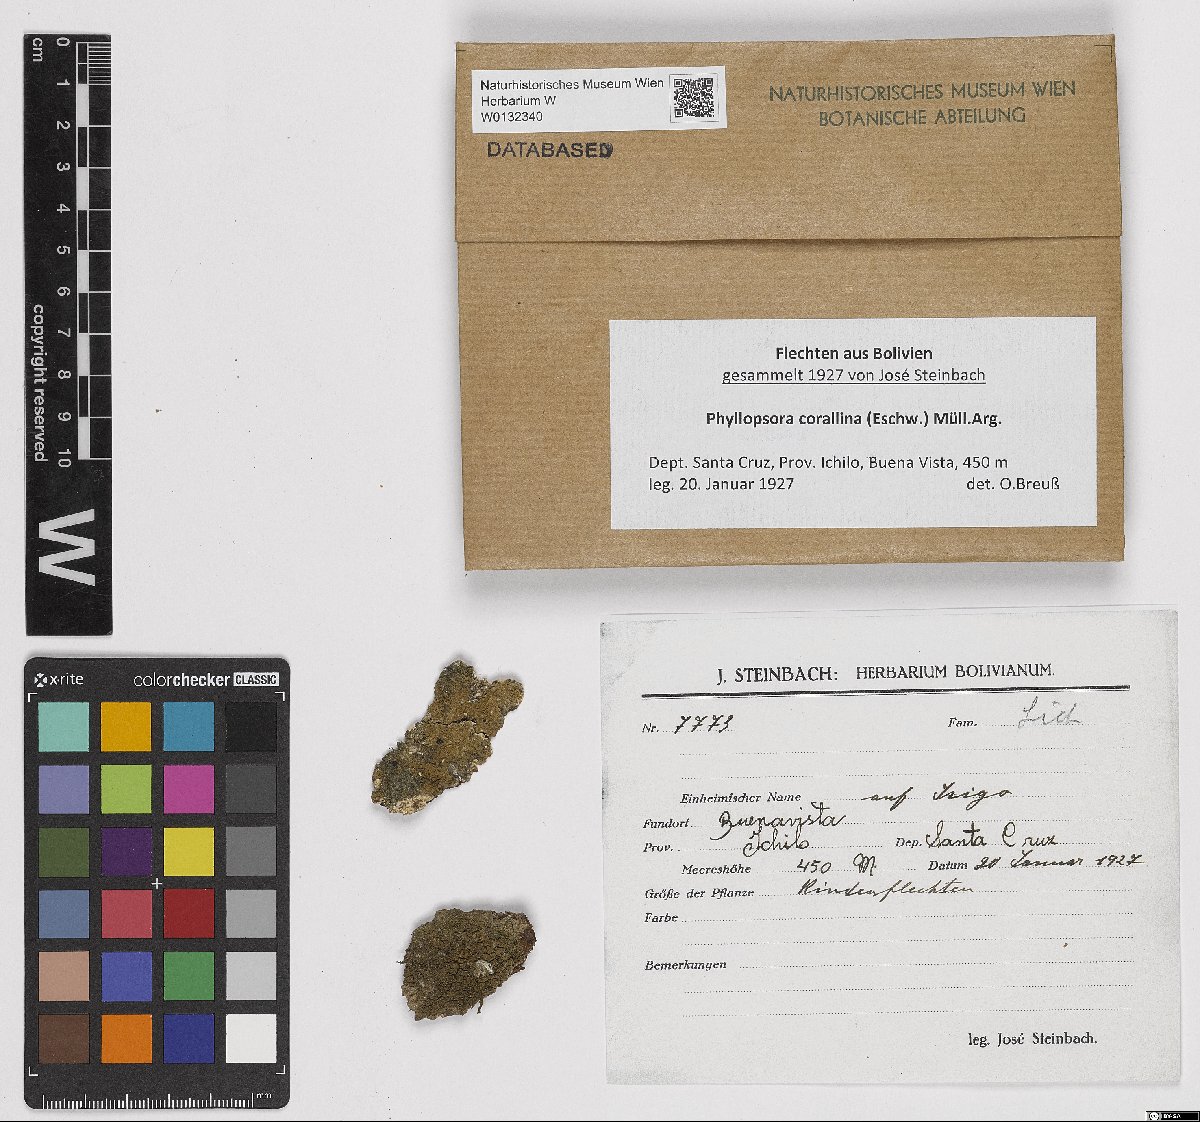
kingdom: Fungi
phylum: Ascomycota
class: Lecanoromycetes
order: Lecanorales
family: Ramalinaceae
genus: Phyllopsora
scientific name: Phyllopsora corallina
